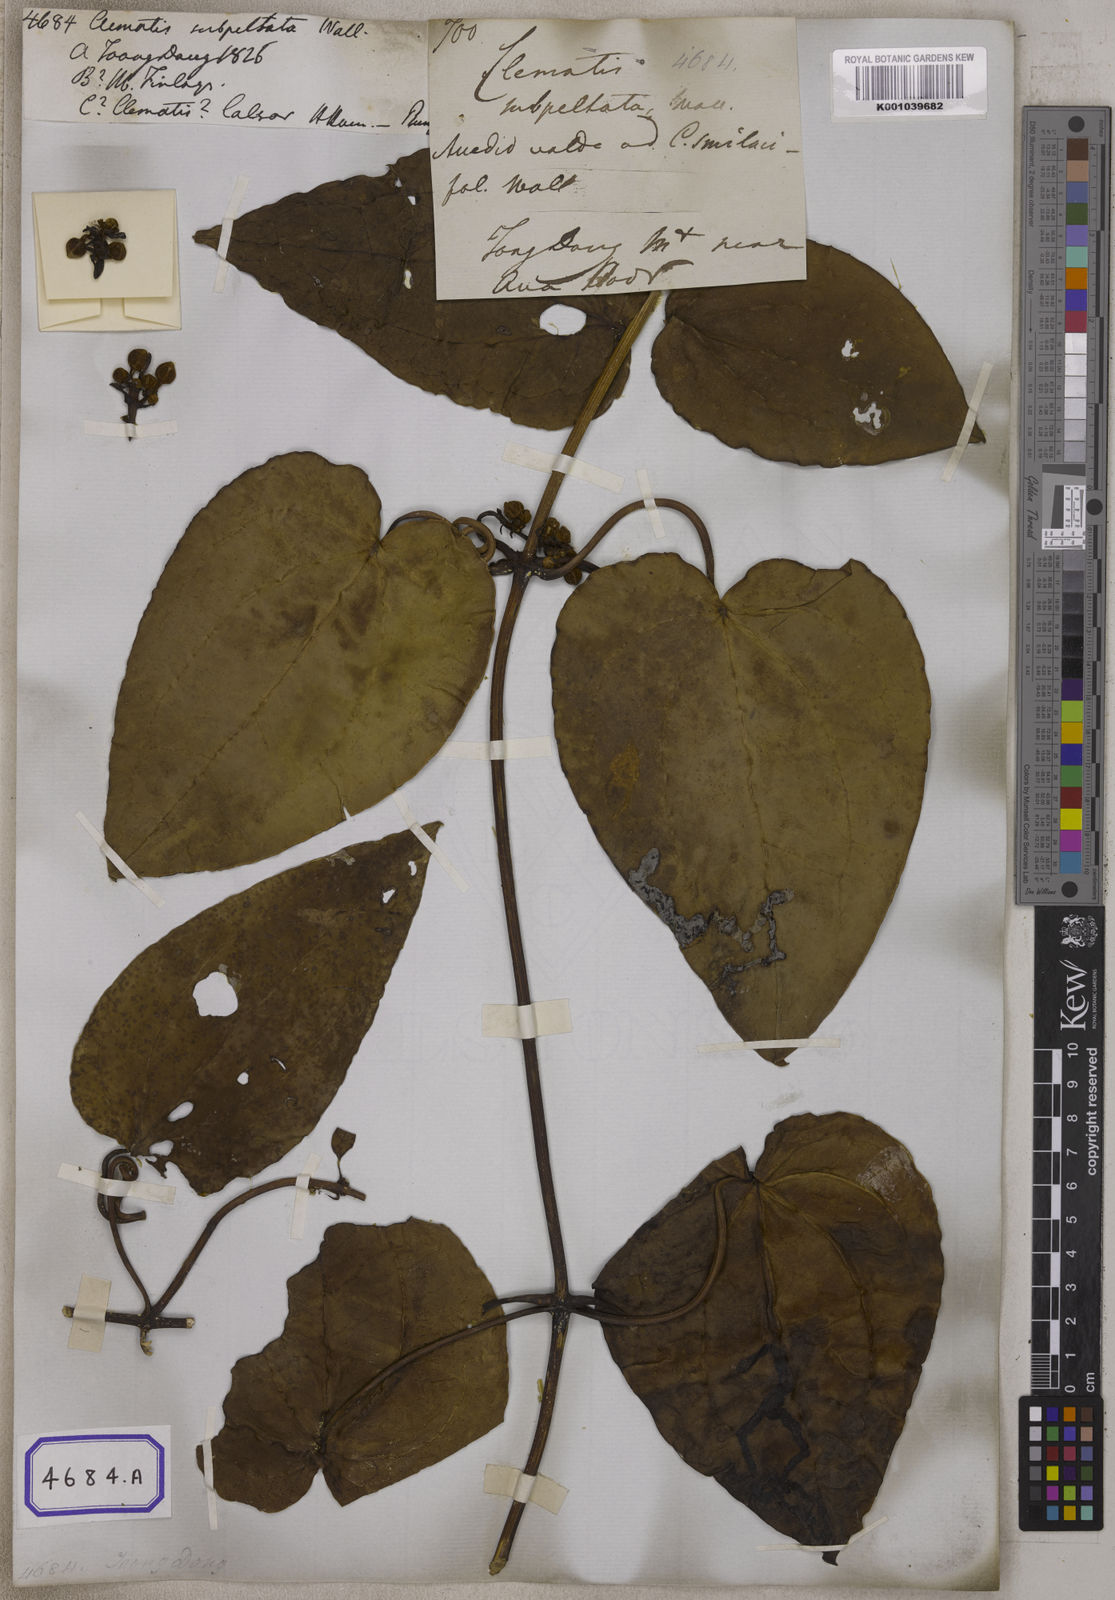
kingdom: Plantae
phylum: Tracheophyta
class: Magnoliopsida
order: Ranunculales
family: Ranunculaceae
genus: Clematis
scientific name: Clematis smilacifolia
